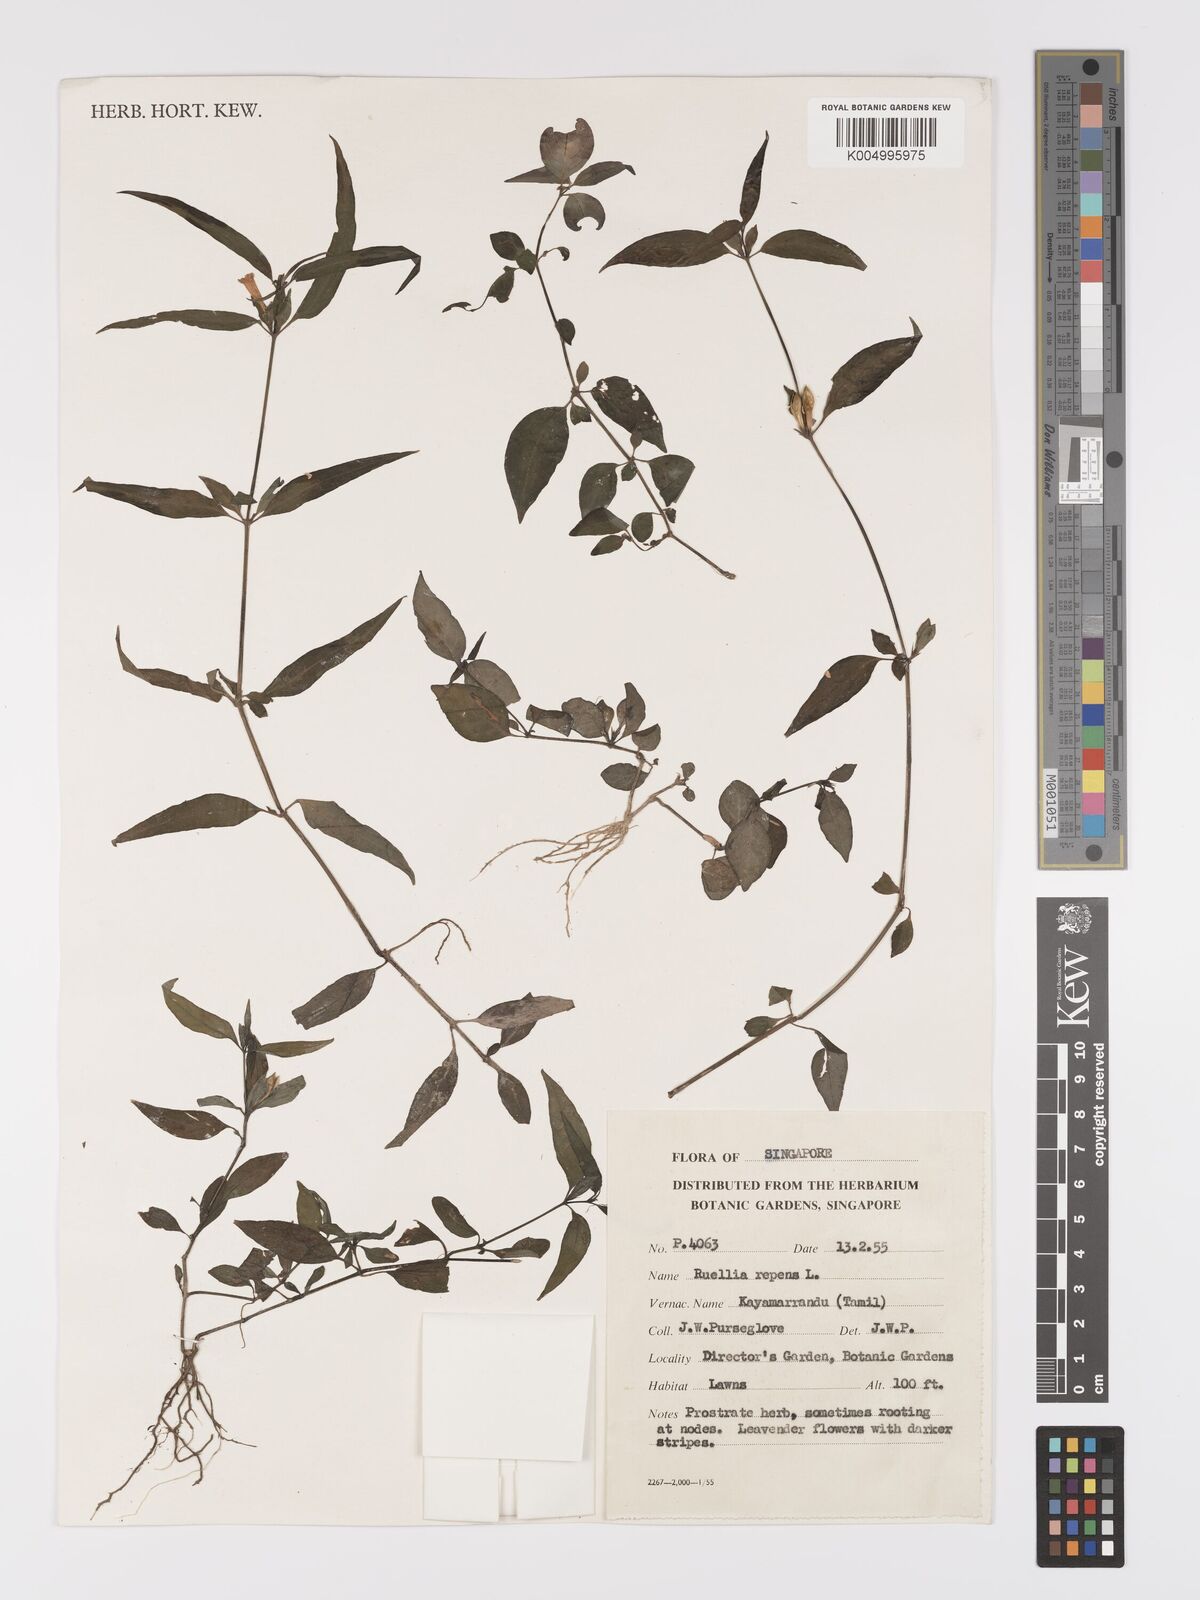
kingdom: Plantae
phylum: Tracheophyta
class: Magnoliopsida
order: Lamiales
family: Acanthaceae
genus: Ruellia
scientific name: Ruellia amoena
